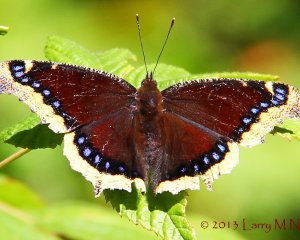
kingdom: Animalia
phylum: Arthropoda
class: Insecta
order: Lepidoptera
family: Nymphalidae
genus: Nymphalis
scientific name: Nymphalis antiopa
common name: Mourning Cloak
